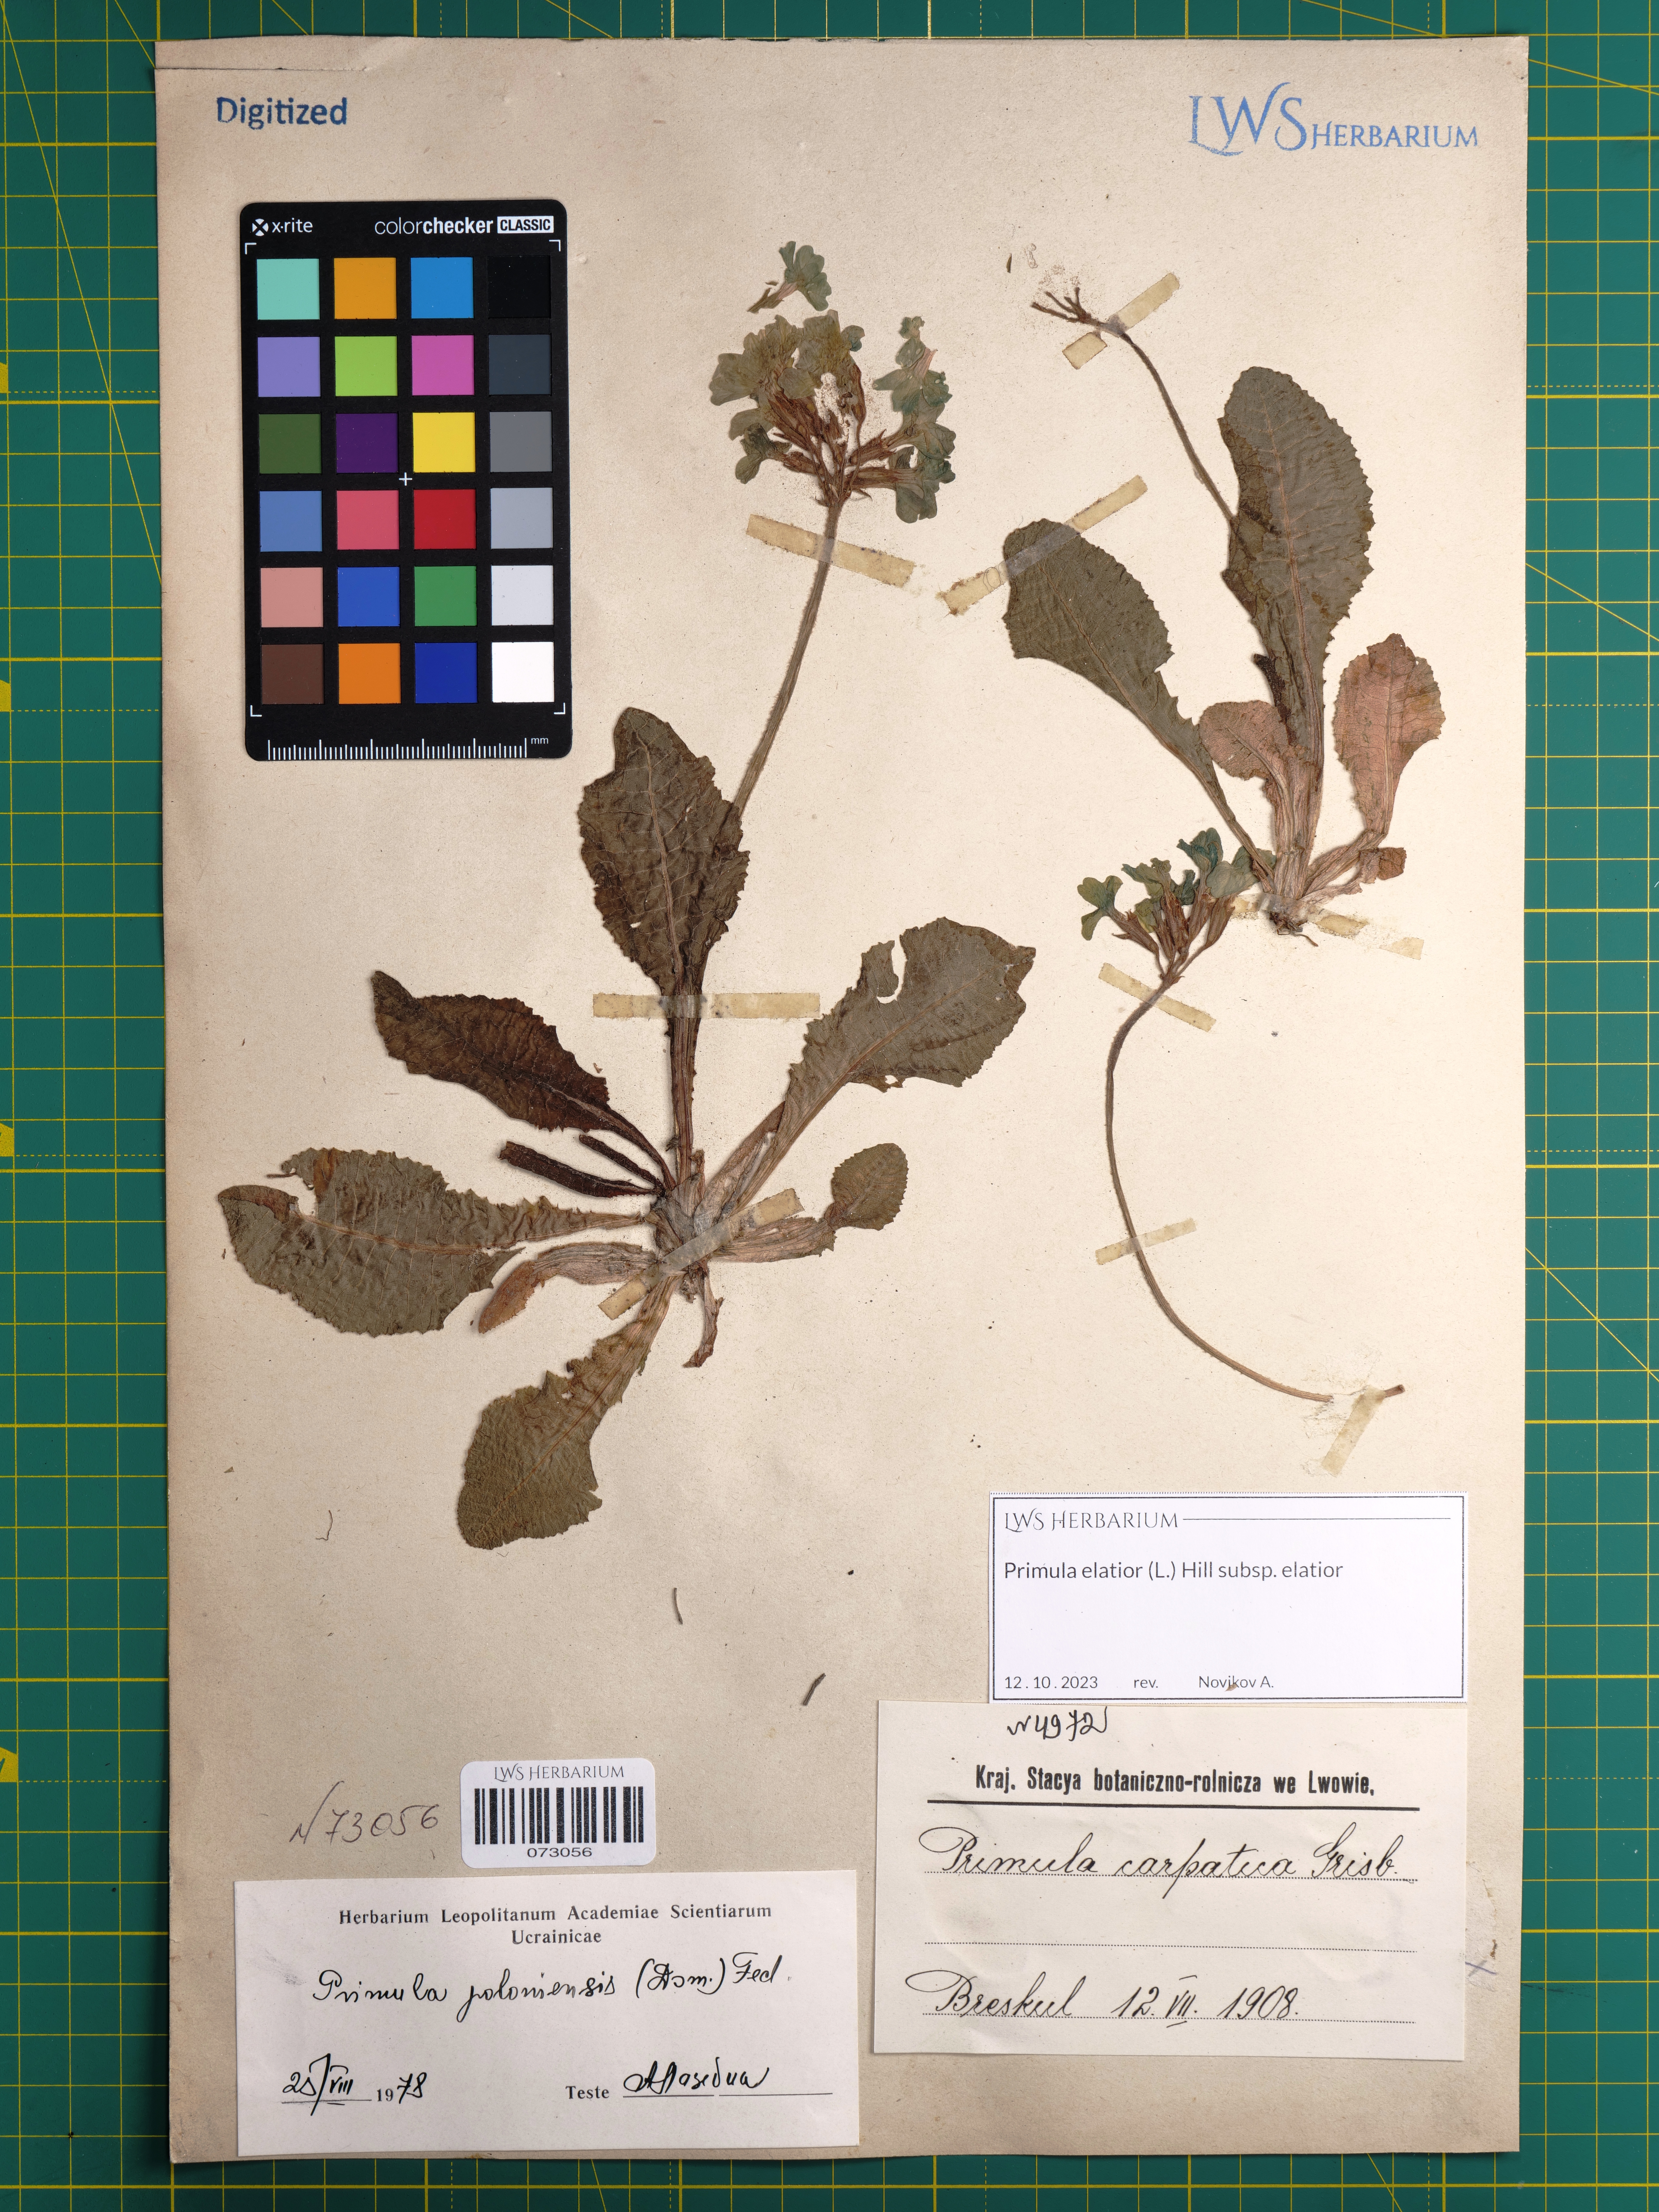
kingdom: Plantae
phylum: Tracheophyta
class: Magnoliopsida
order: Ericales
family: Primulaceae
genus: Primula
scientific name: Primula elatior
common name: Oxlip
